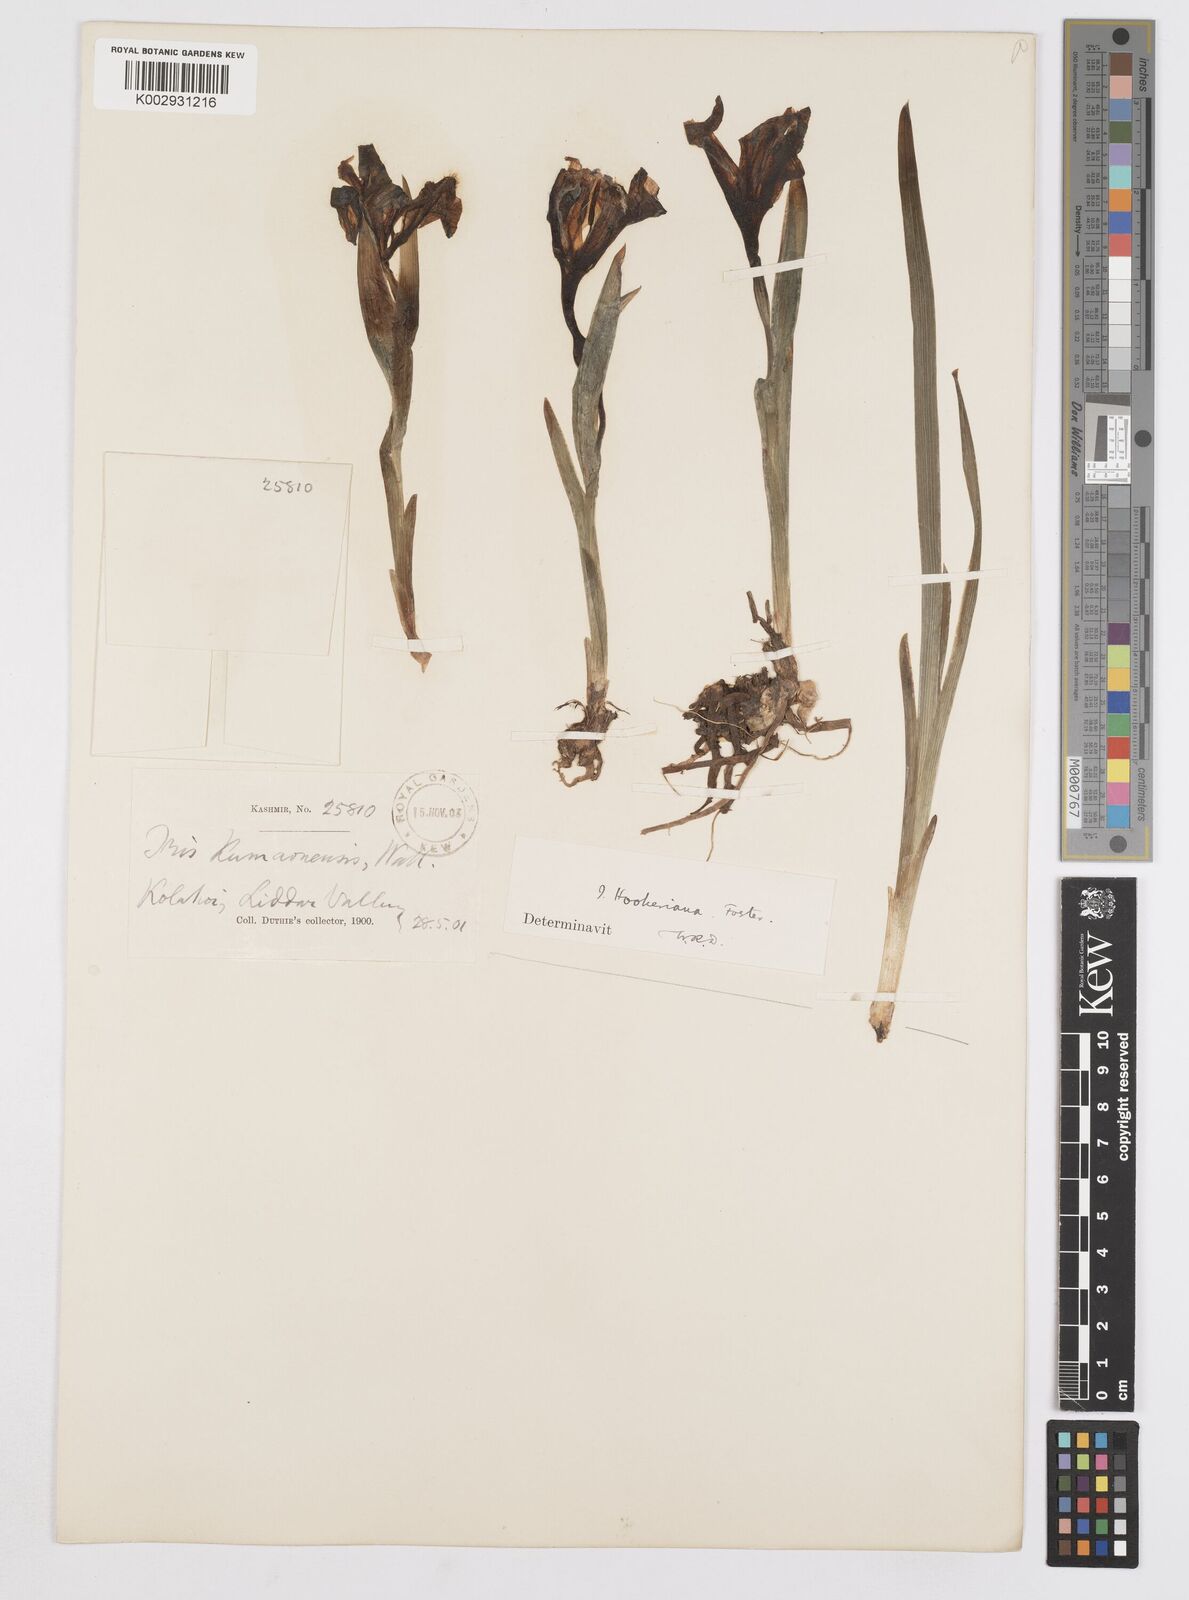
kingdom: Plantae
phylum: Tracheophyta
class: Liliopsida
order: Asparagales
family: Iridaceae
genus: Iris
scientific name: Iris hookeriana
